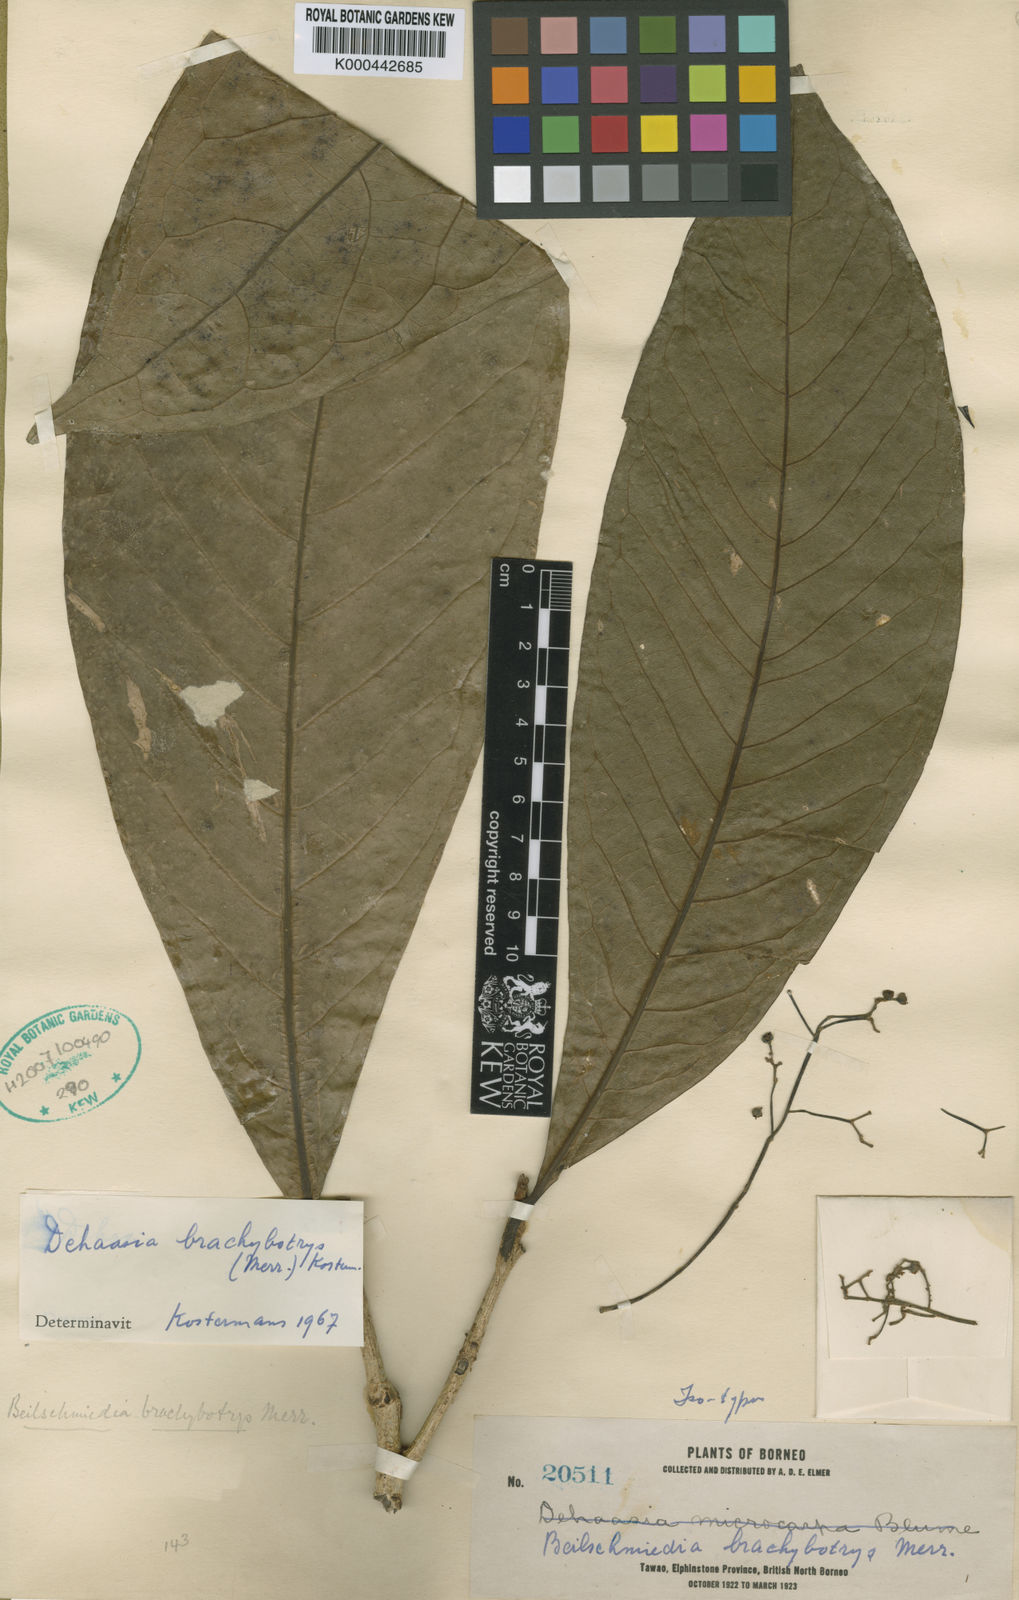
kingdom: Plantae
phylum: Tracheophyta
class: Magnoliopsida
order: Laurales
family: Lauraceae
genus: Dehaasia
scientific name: Dehaasia brachybotrys
